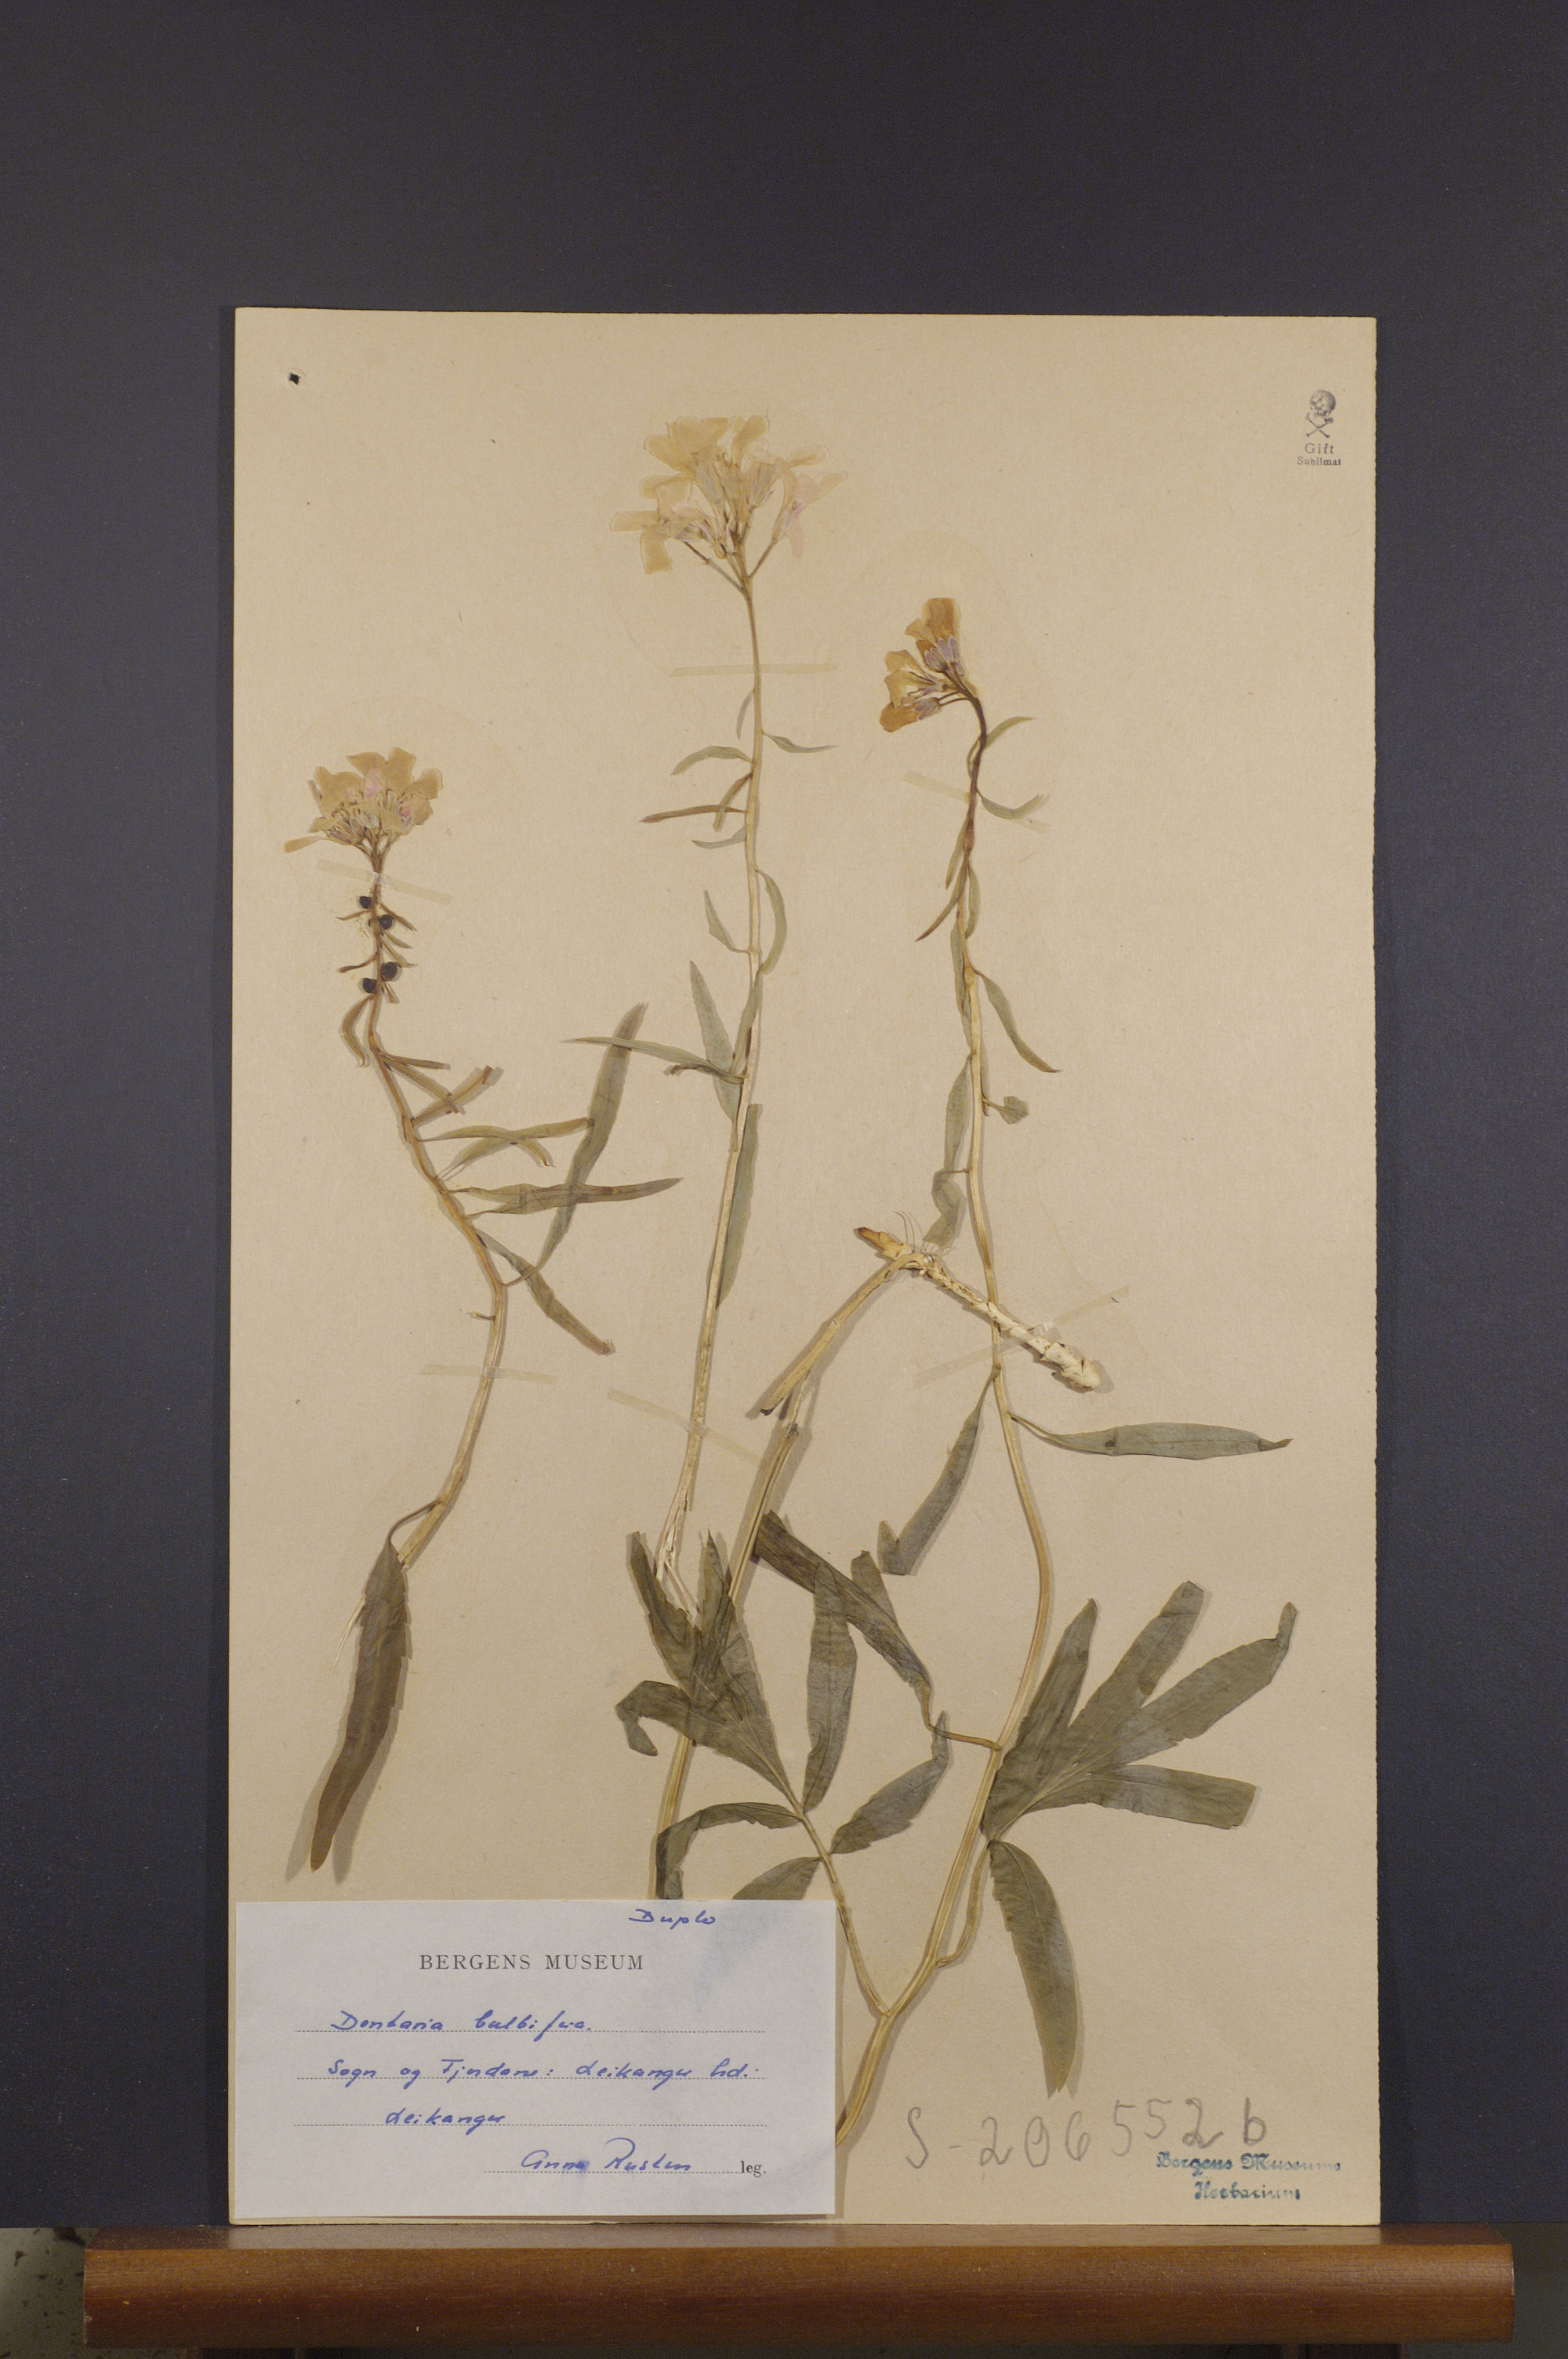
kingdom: Plantae
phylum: Tracheophyta
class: Magnoliopsida
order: Brassicales
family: Brassicaceae
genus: Cardamine
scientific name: Cardamine bulbifera
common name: Coralroot bittercress
